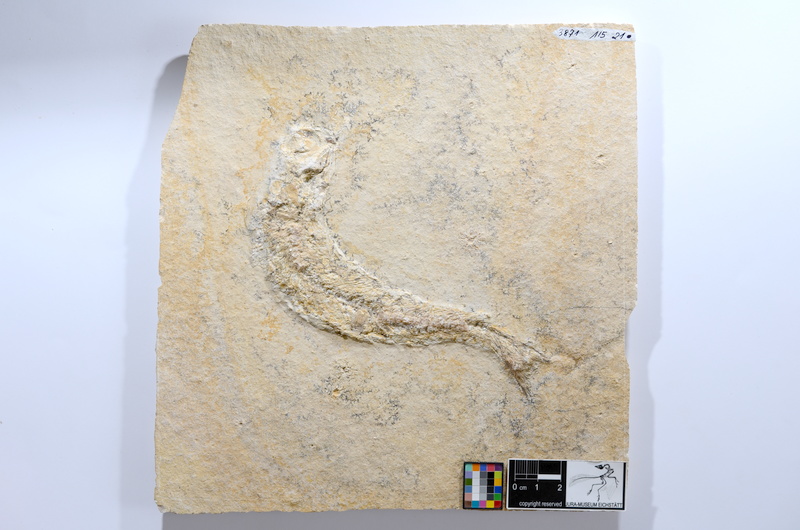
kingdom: Animalia
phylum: Chordata
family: Ascalaboidae
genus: Tharsis
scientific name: Tharsis dubius
